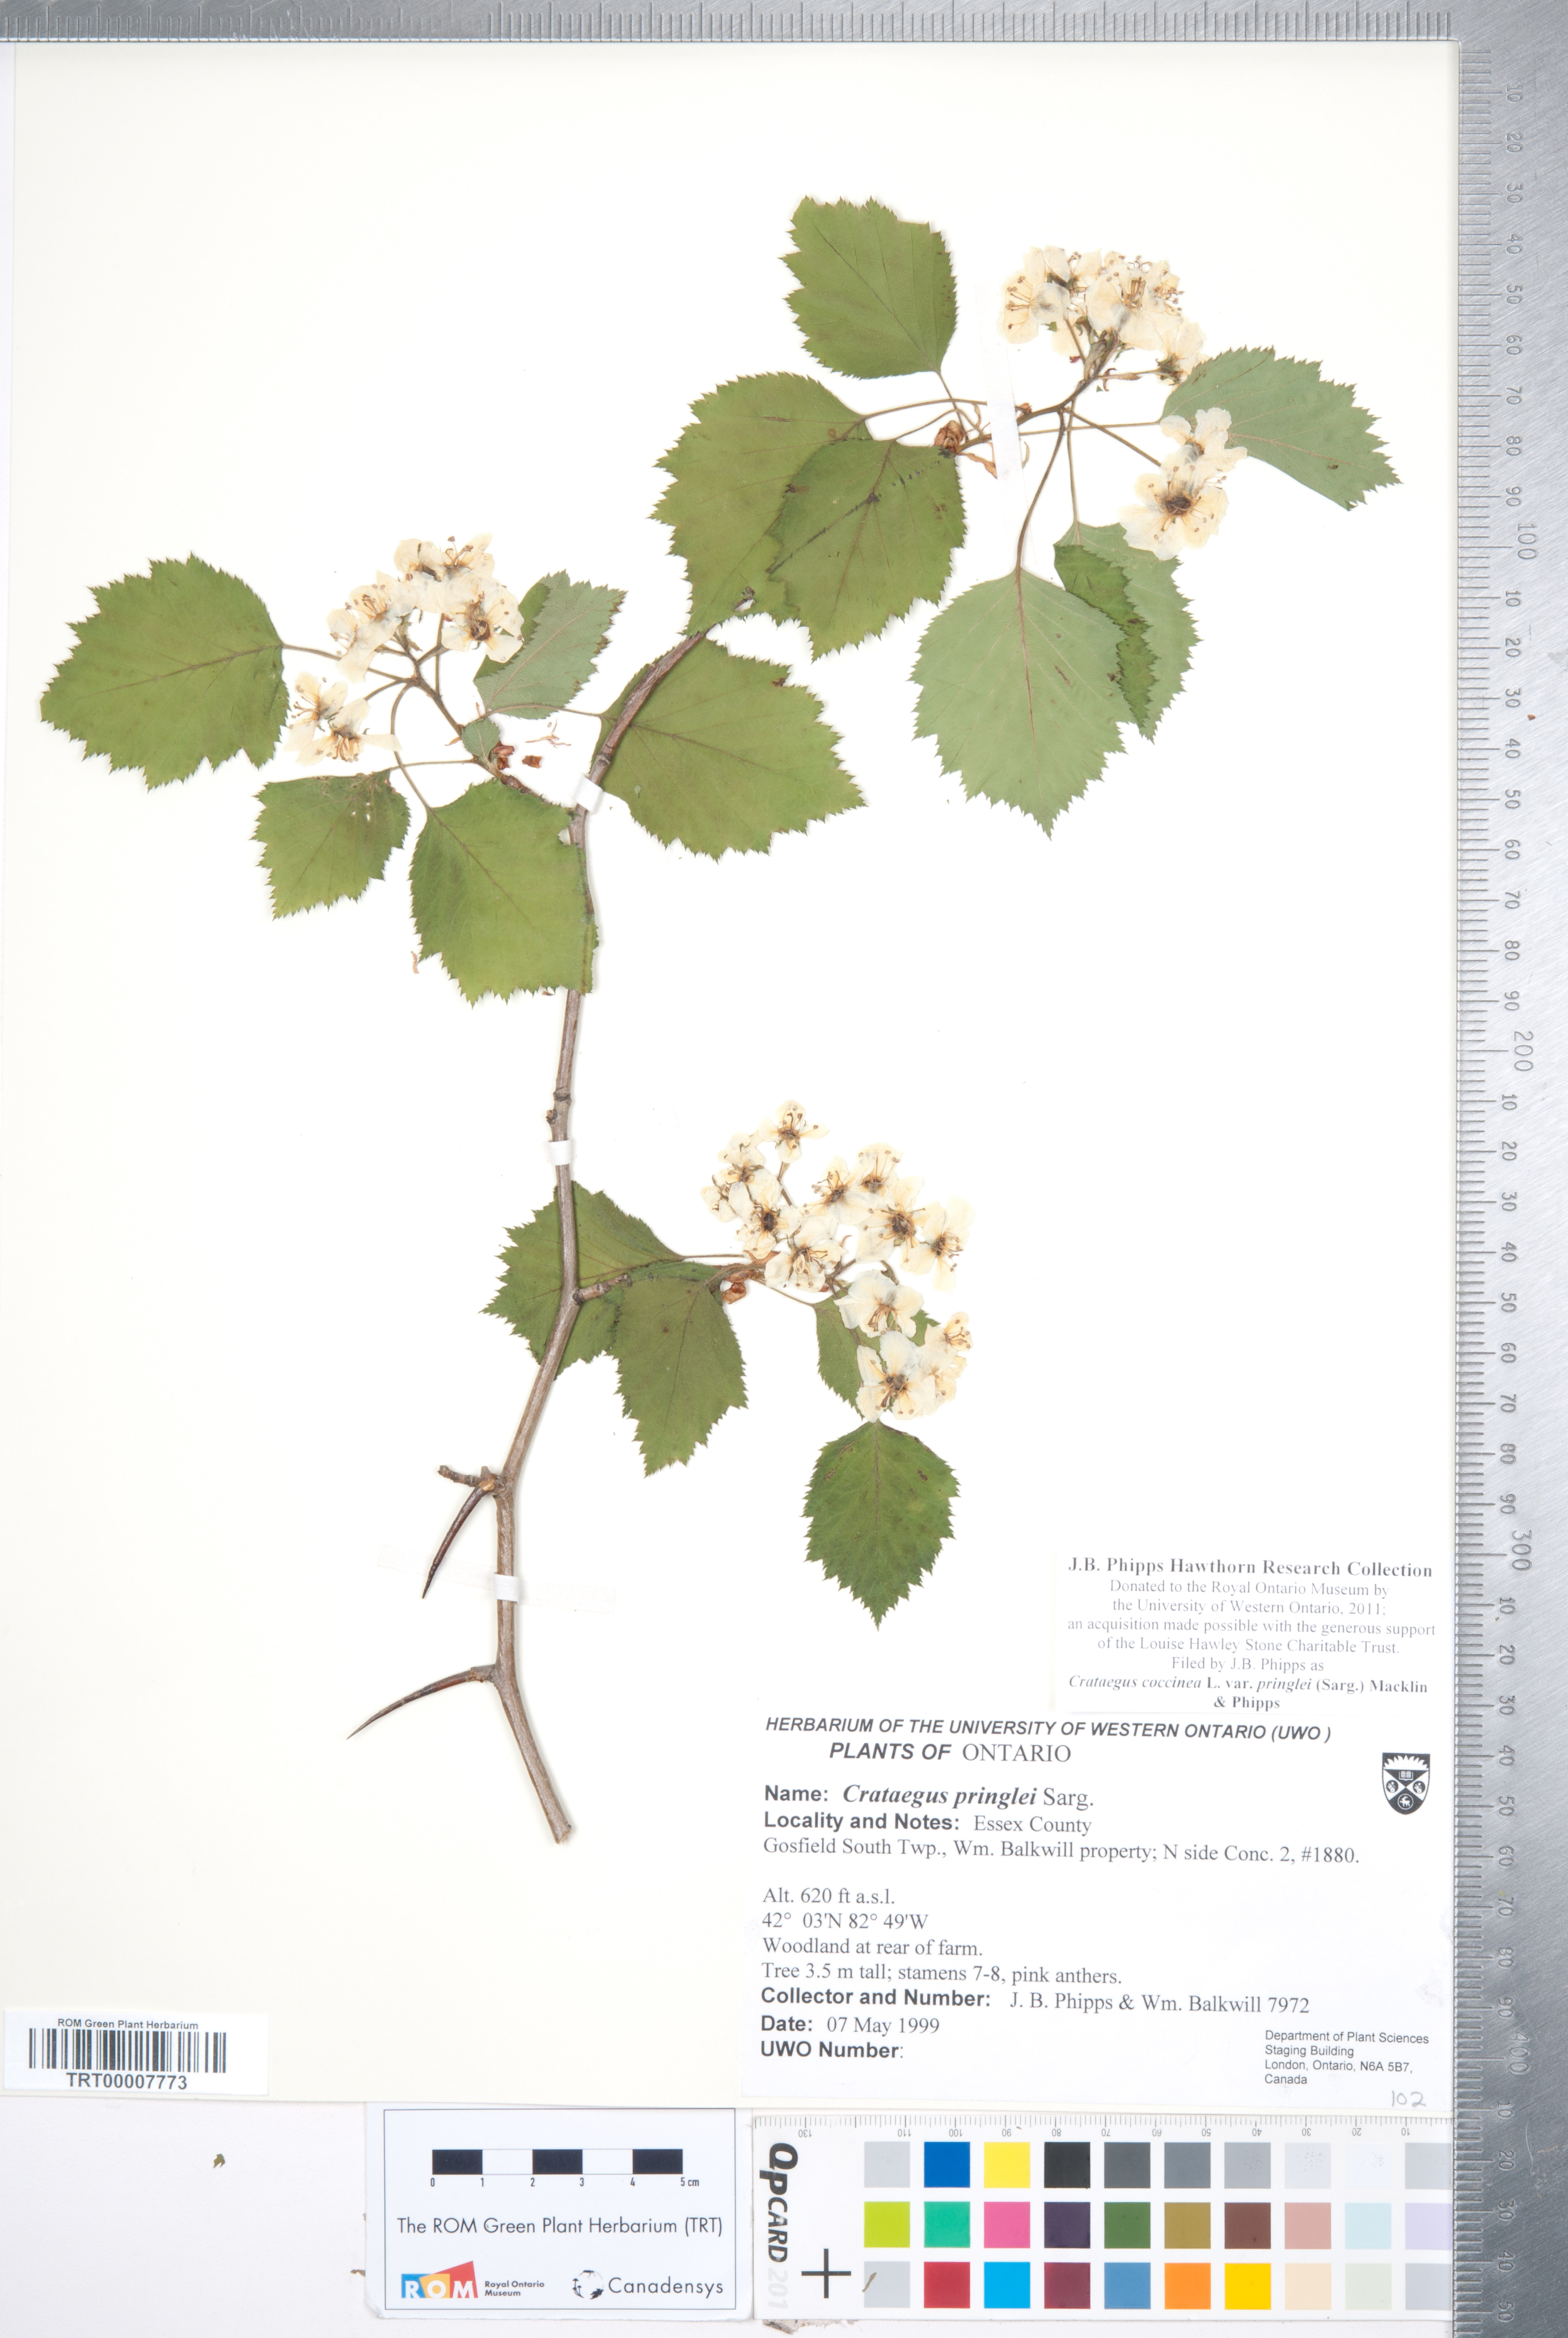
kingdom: Plantae
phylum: Tracheophyta
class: Magnoliopsida
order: Rosales
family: Rosaceae
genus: Crataegus
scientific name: Crataegus coccinea
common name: Scarlet hawthorn
